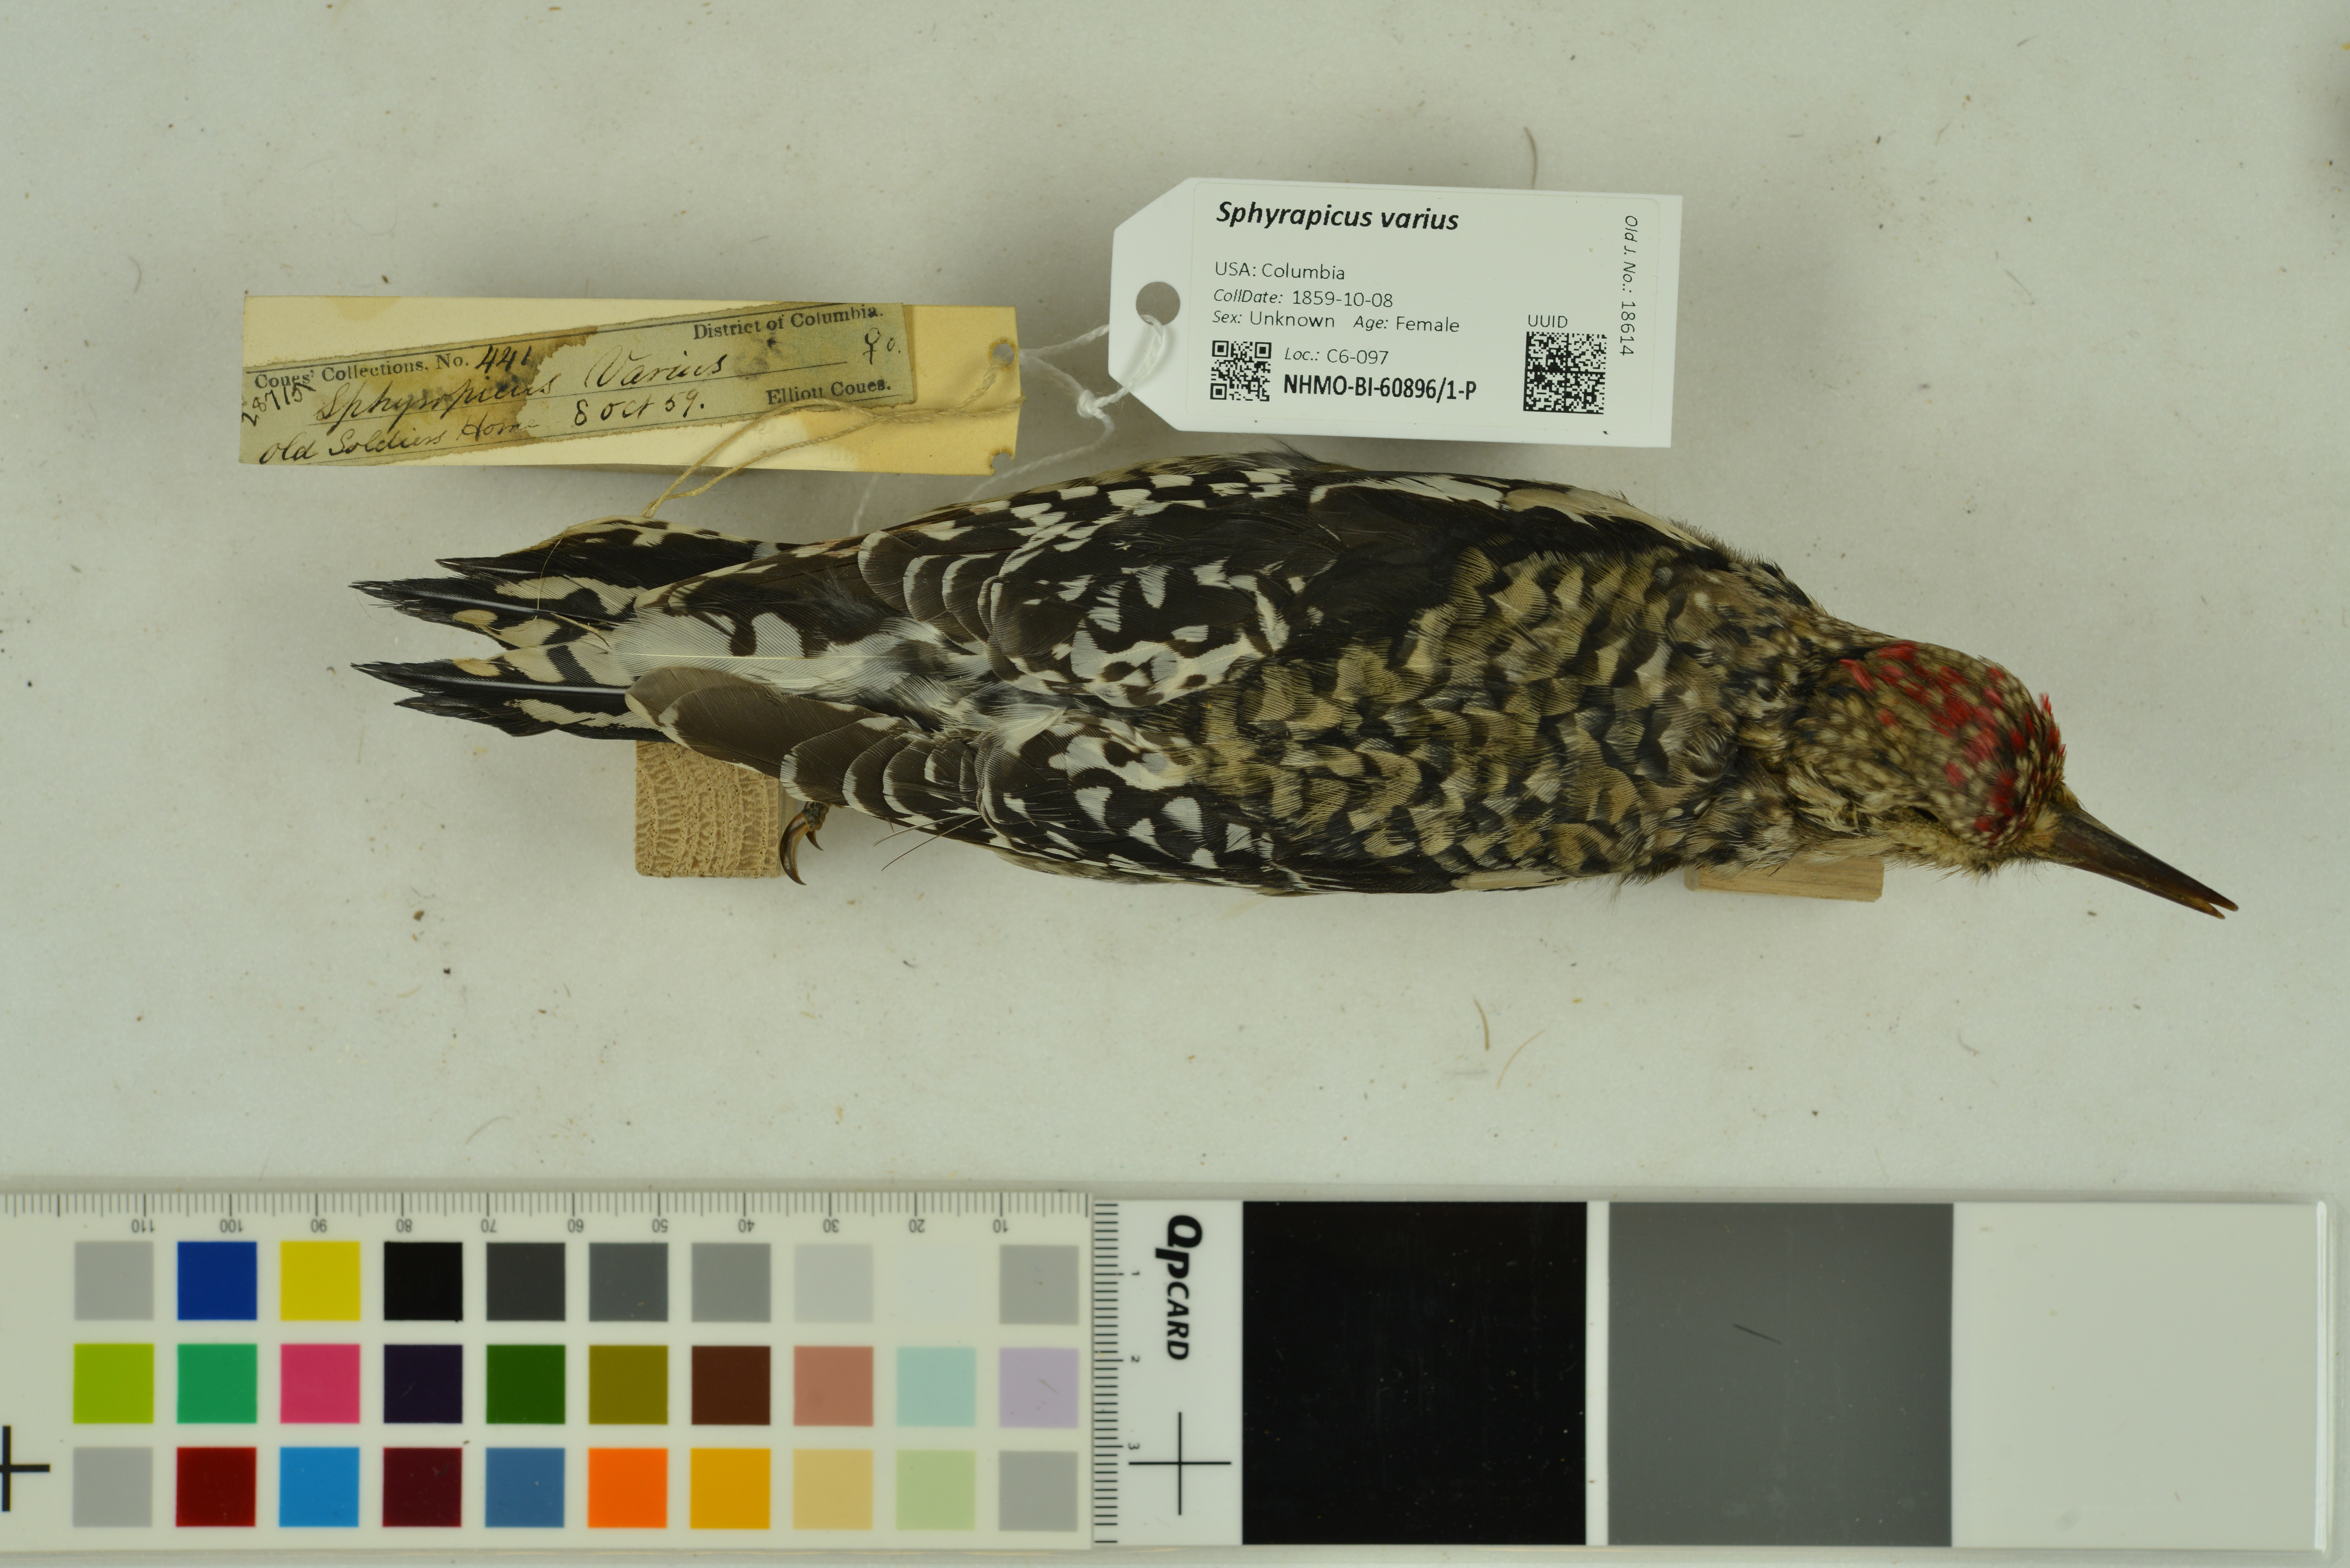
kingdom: Animalia
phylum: Chordata
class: Aves
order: Piciformes
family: Picidae
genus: Sphyrapicus
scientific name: Sphyrapicus varius
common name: Yellow-bellied sapsucker
